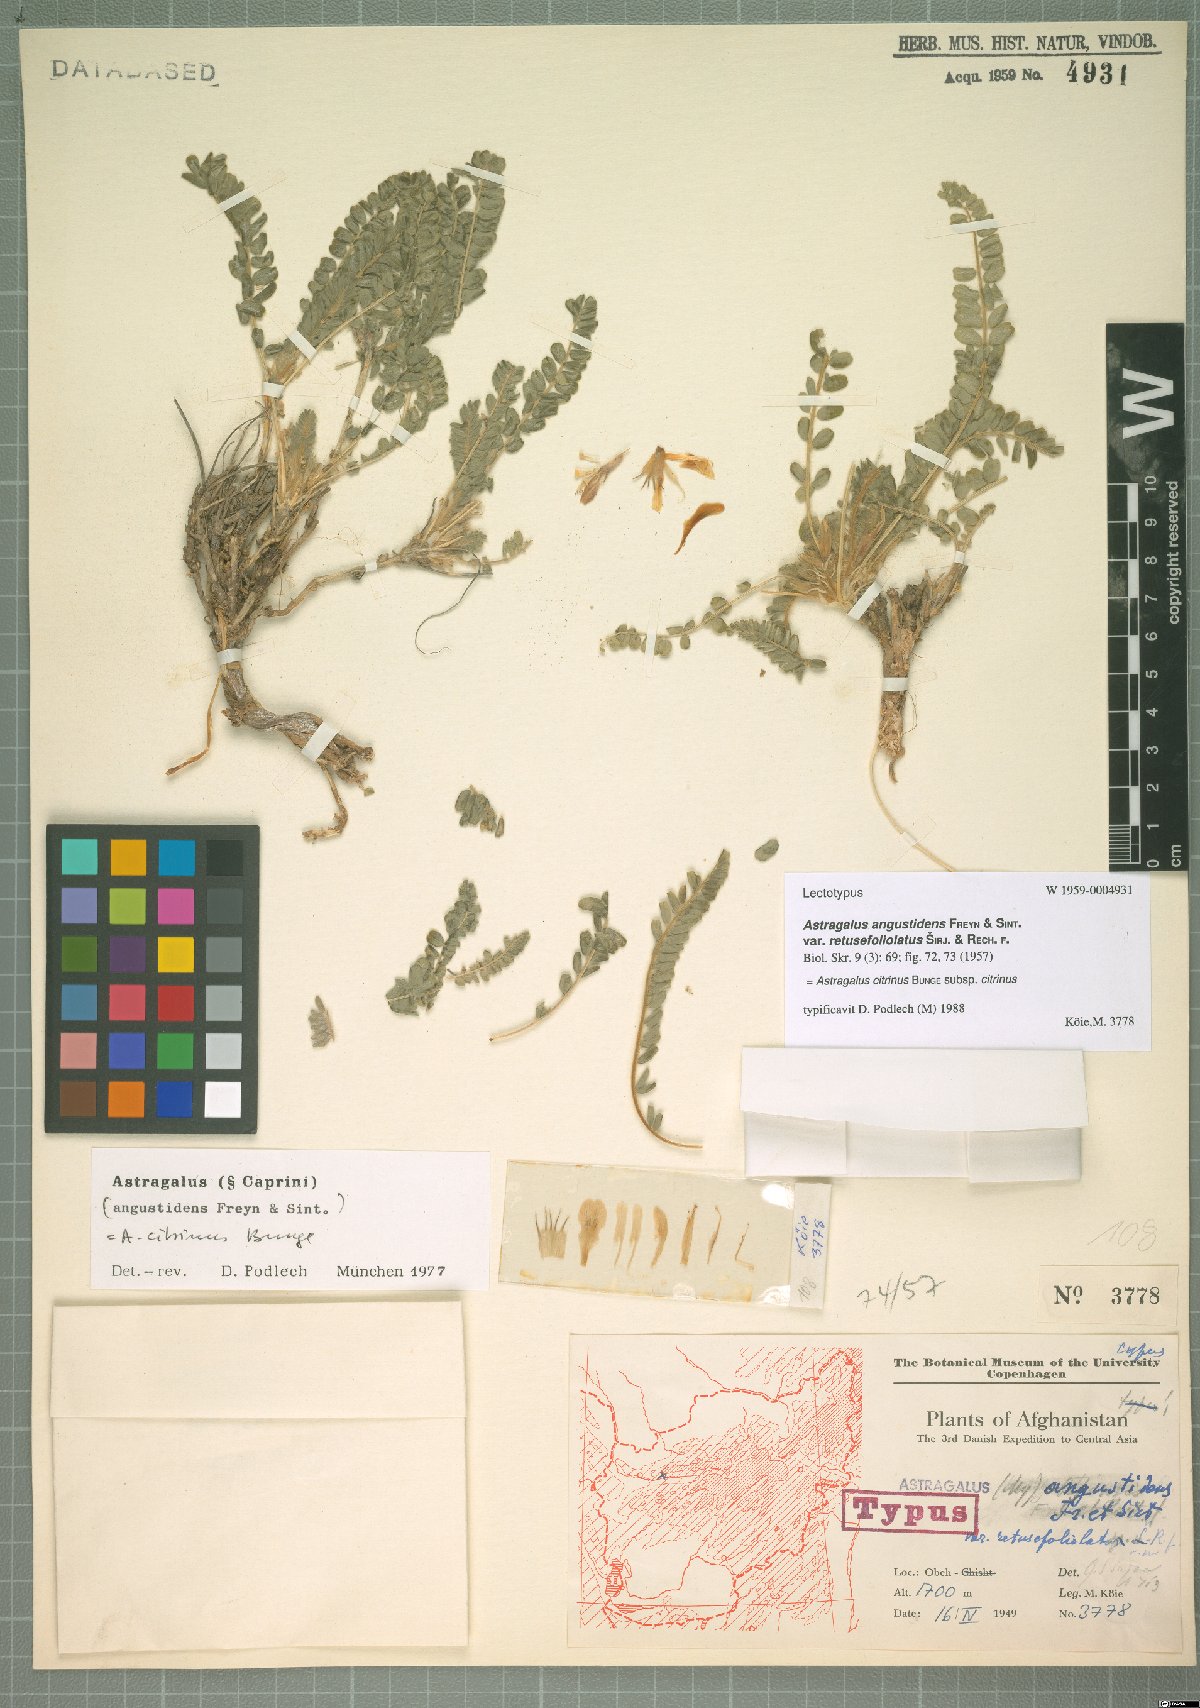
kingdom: Plantae
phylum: Tracheophyta
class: Magnoliopsida
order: Fabales
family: Fabaceae
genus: Astragalus
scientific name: Astragalus citrinus
